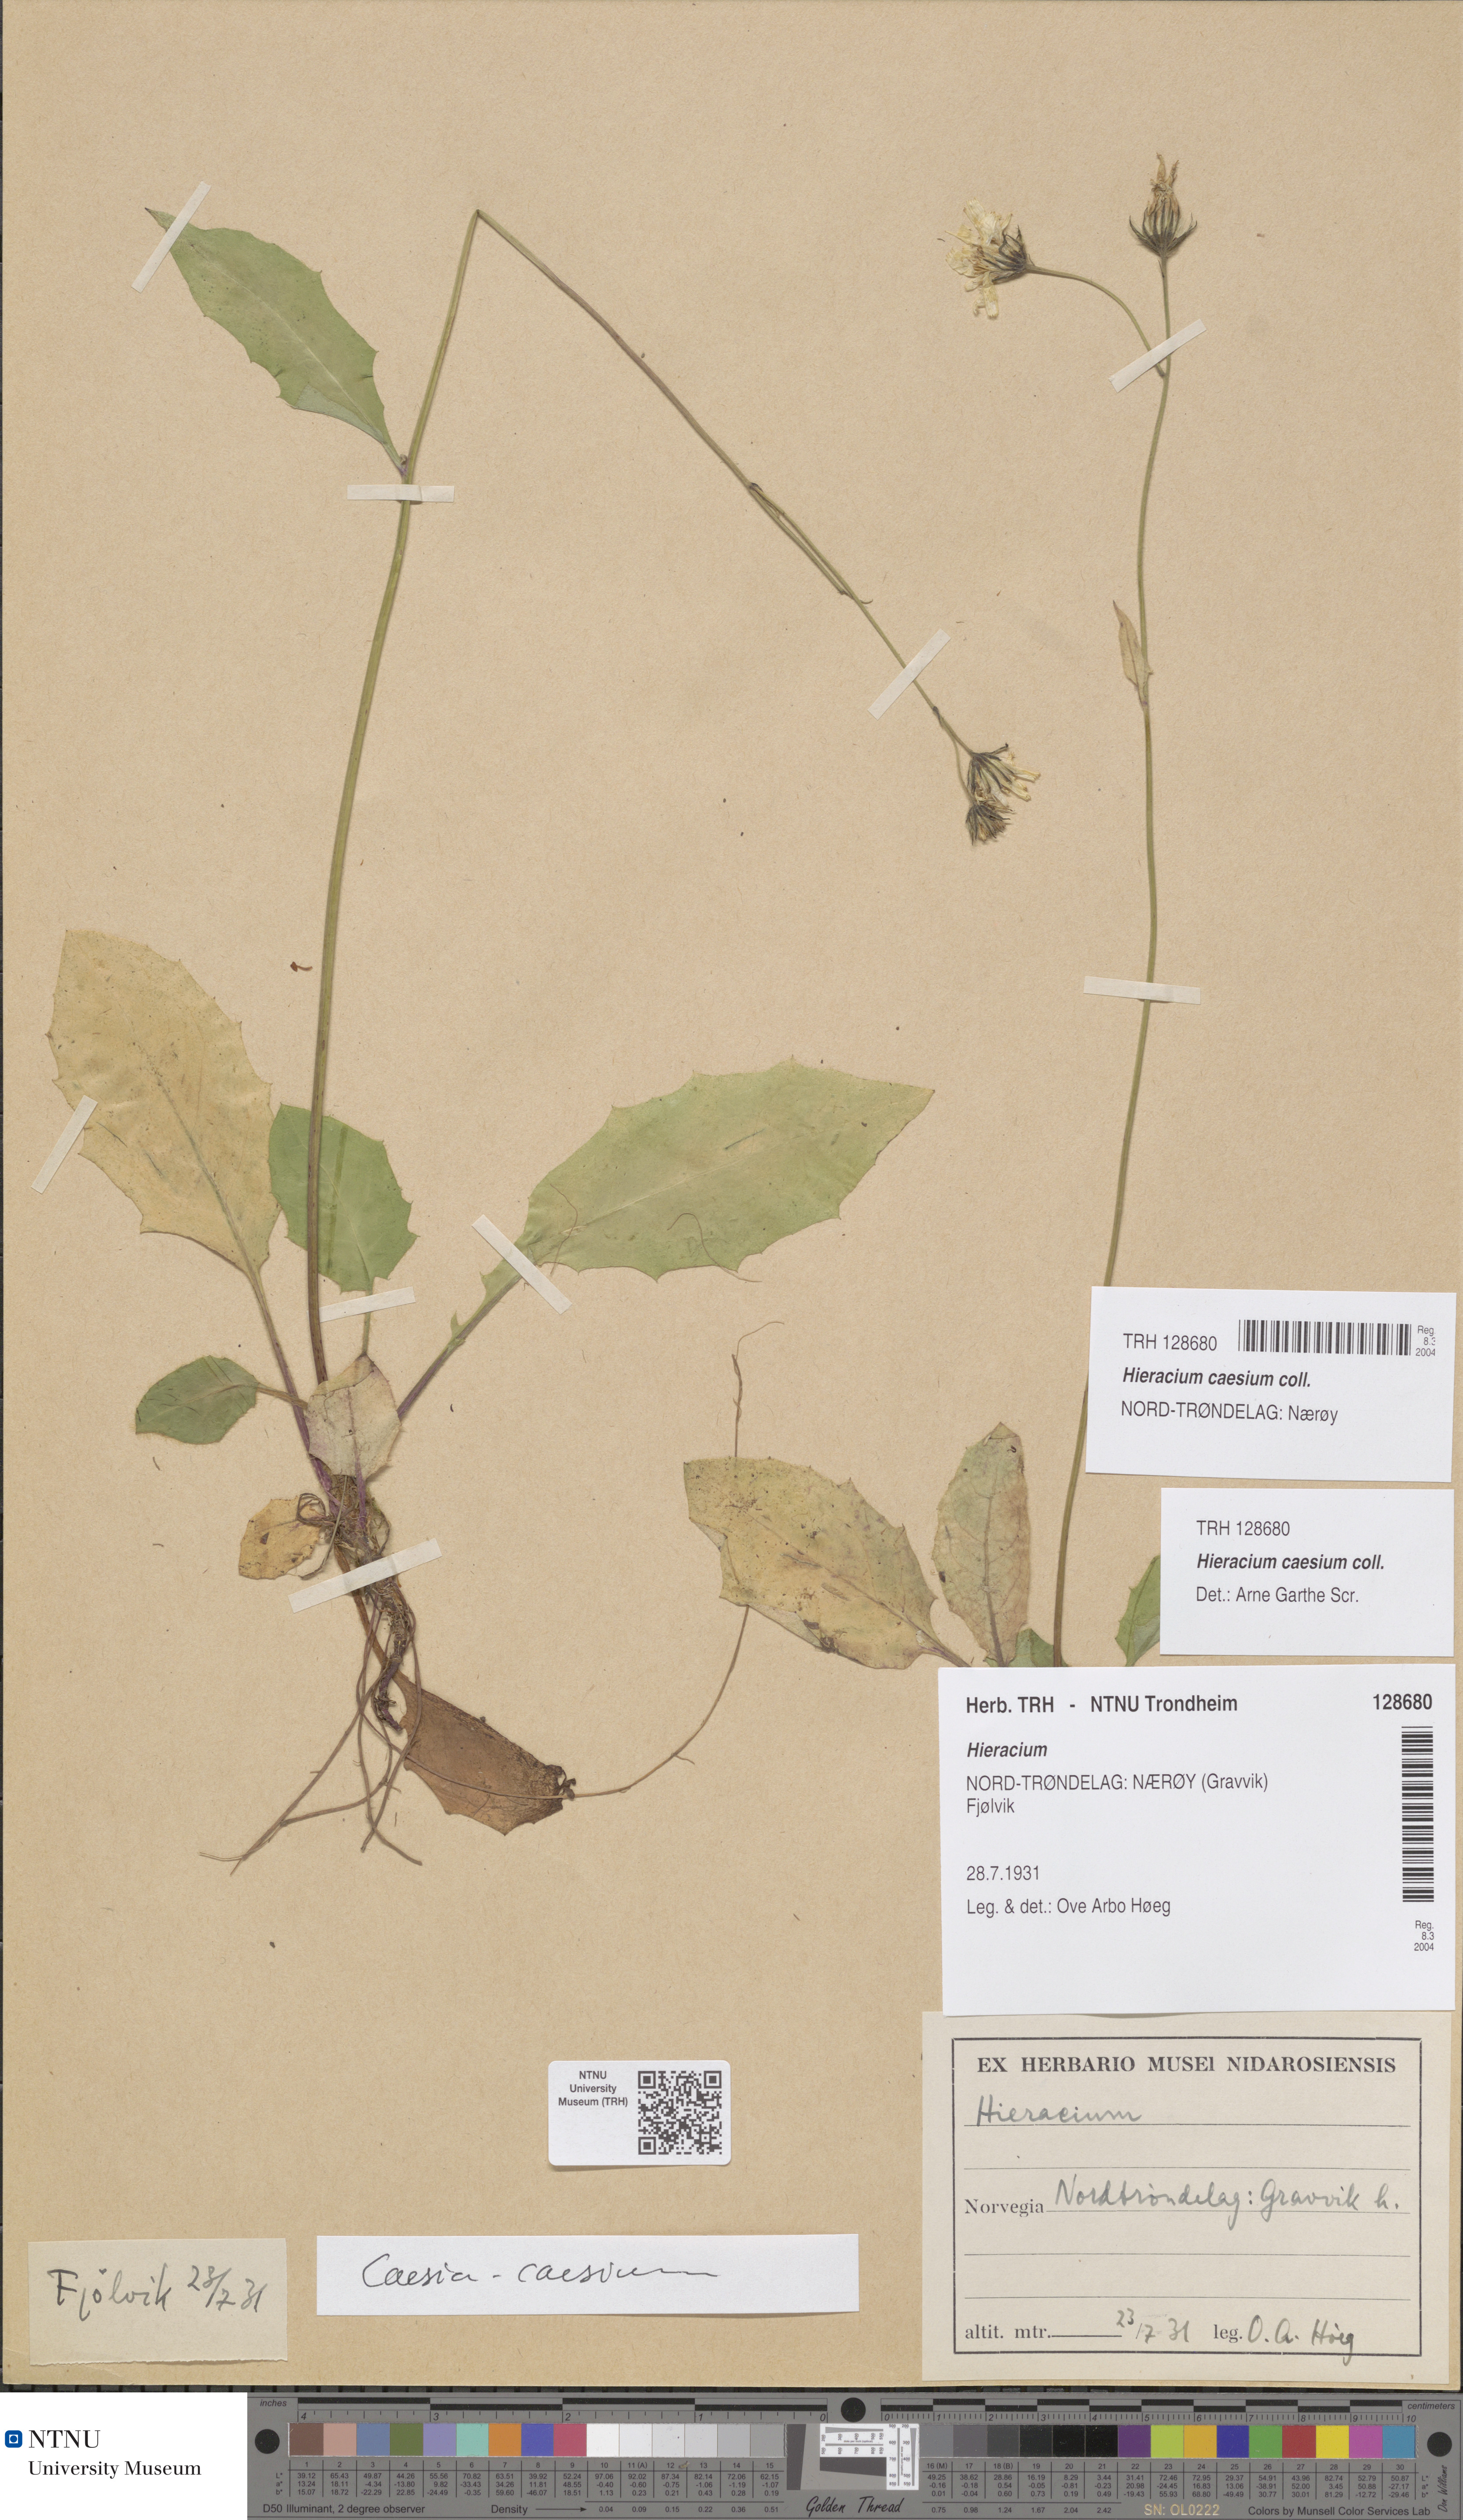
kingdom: Plantae
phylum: Tracheophyta
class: Magnoliopsida
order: Asterales
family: Asteraceae
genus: Hieracium
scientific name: Hieracium caesium
